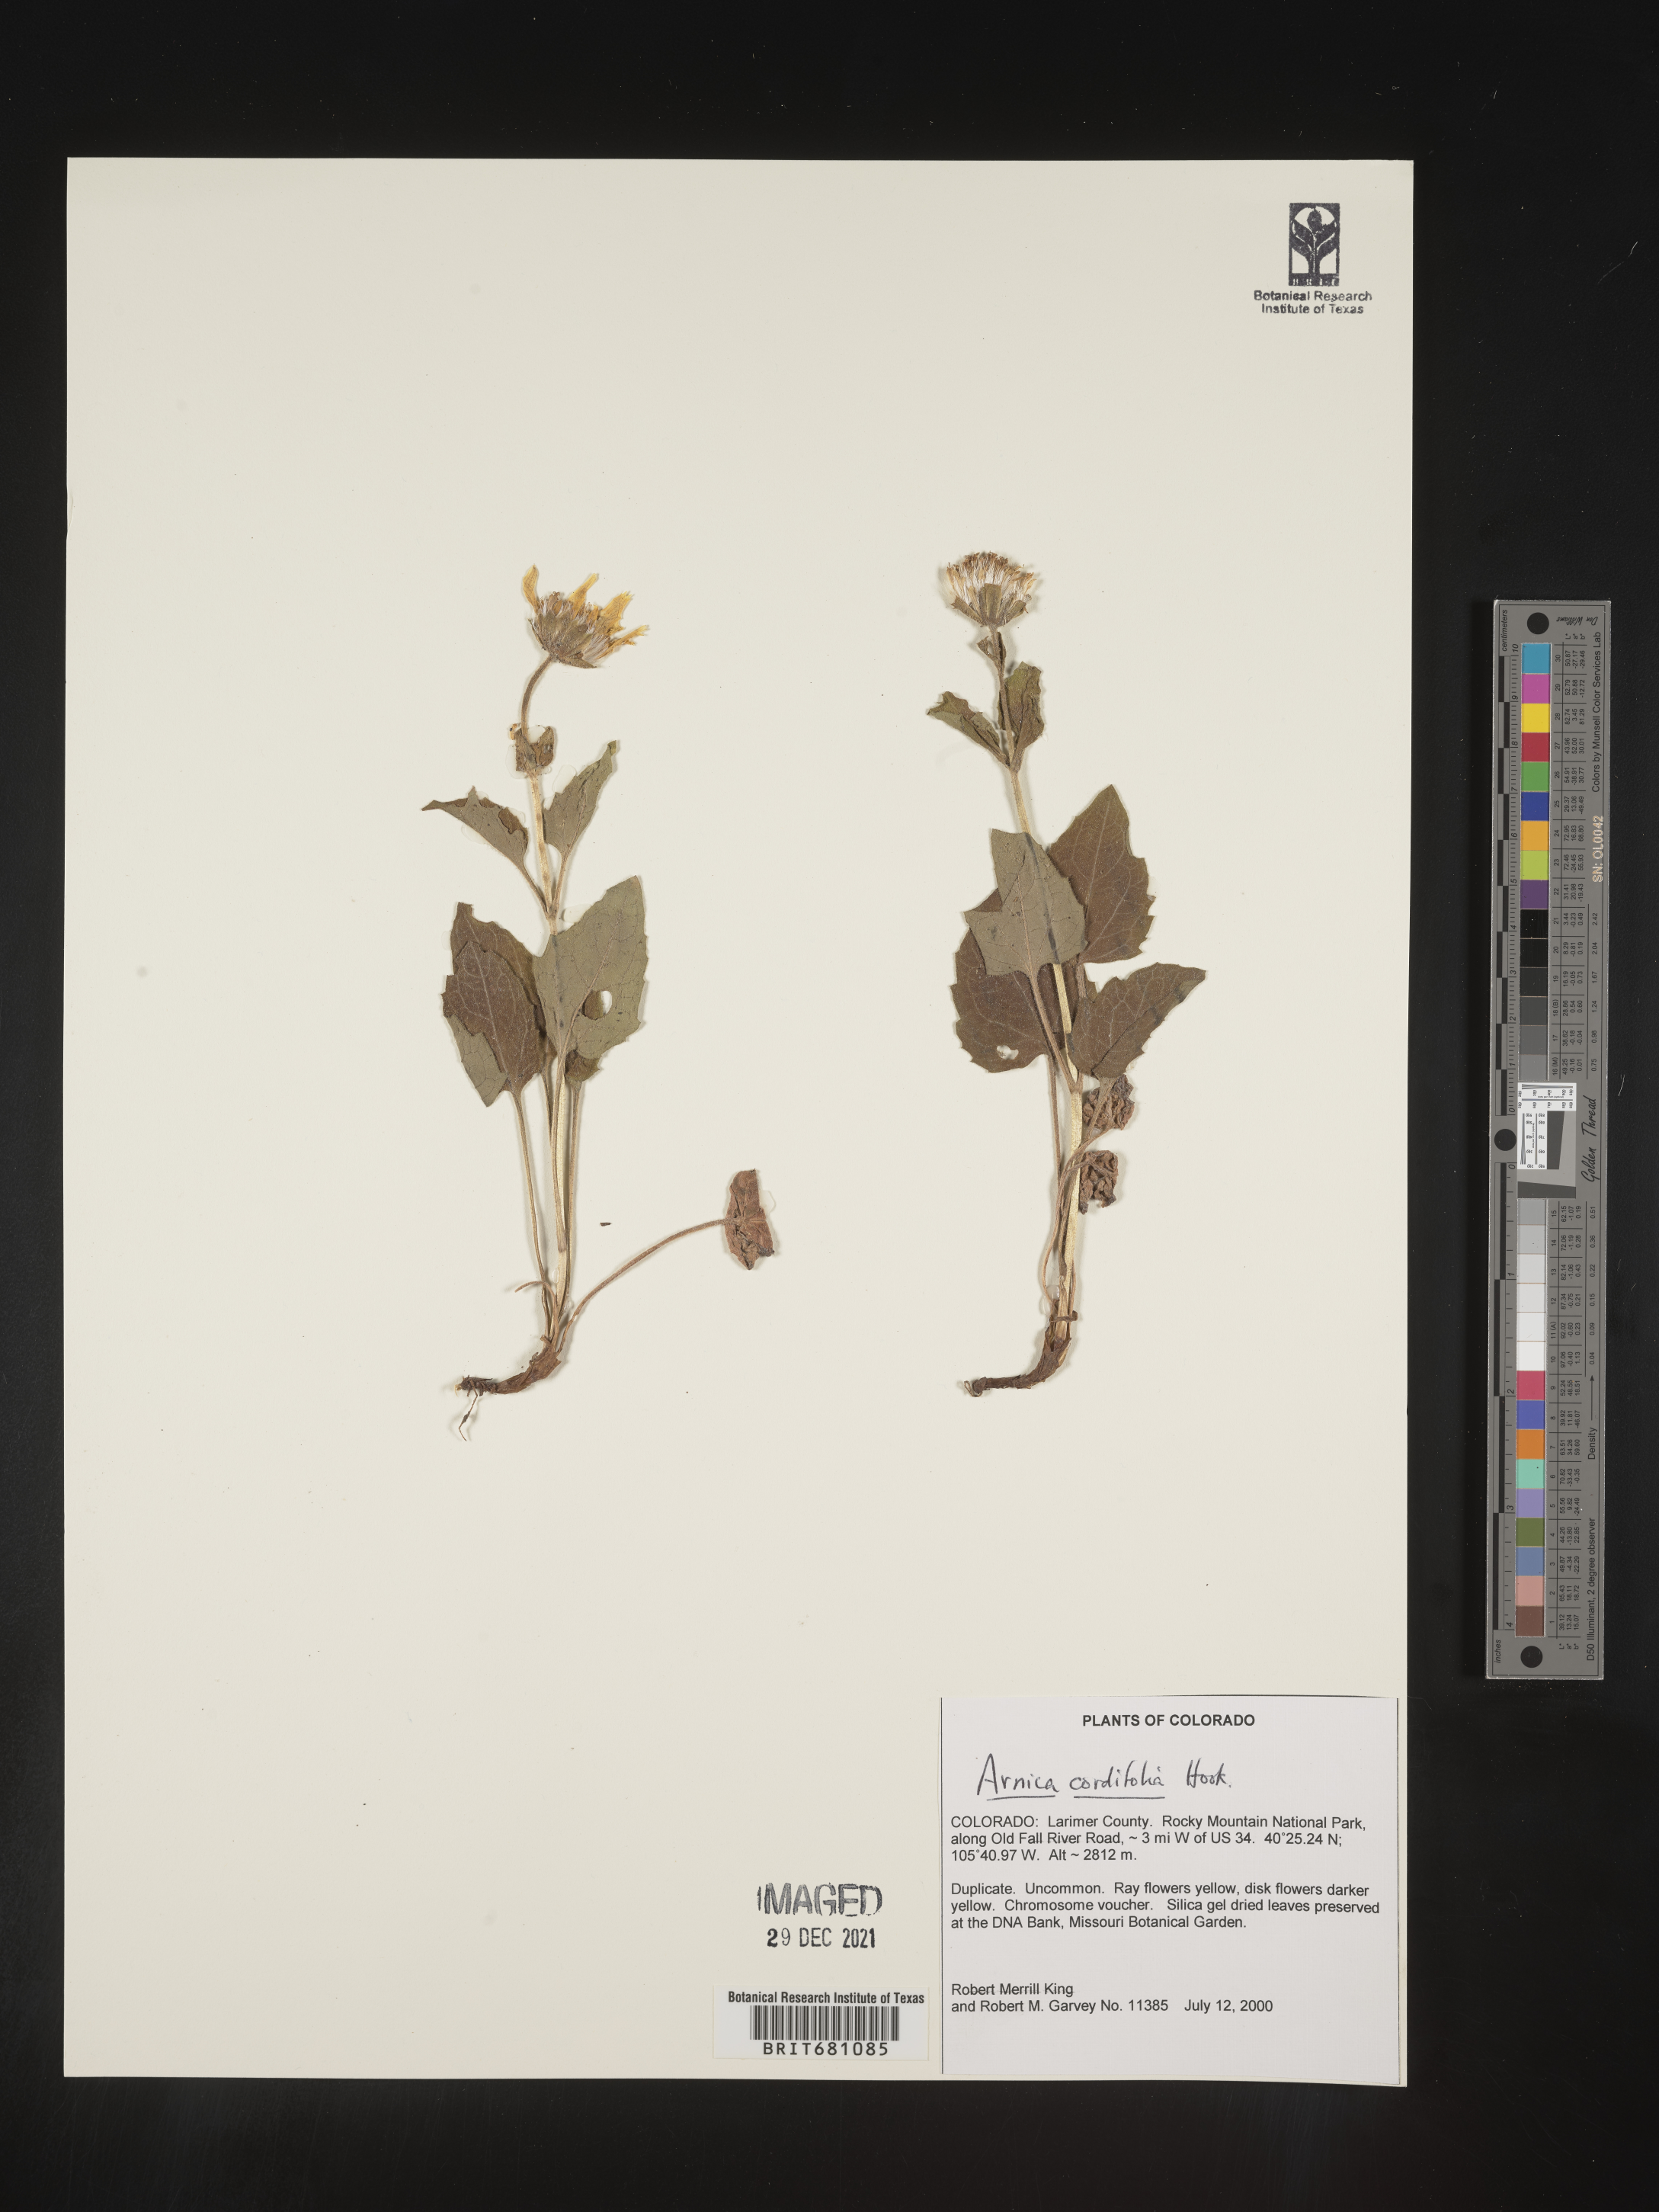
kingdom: Plantae
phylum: Tracheophyta
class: Magnoliopsida
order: Asterales
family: Asteraceae
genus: Arnica
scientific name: Arnica cordifolia
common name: Heart-leaf arnica
